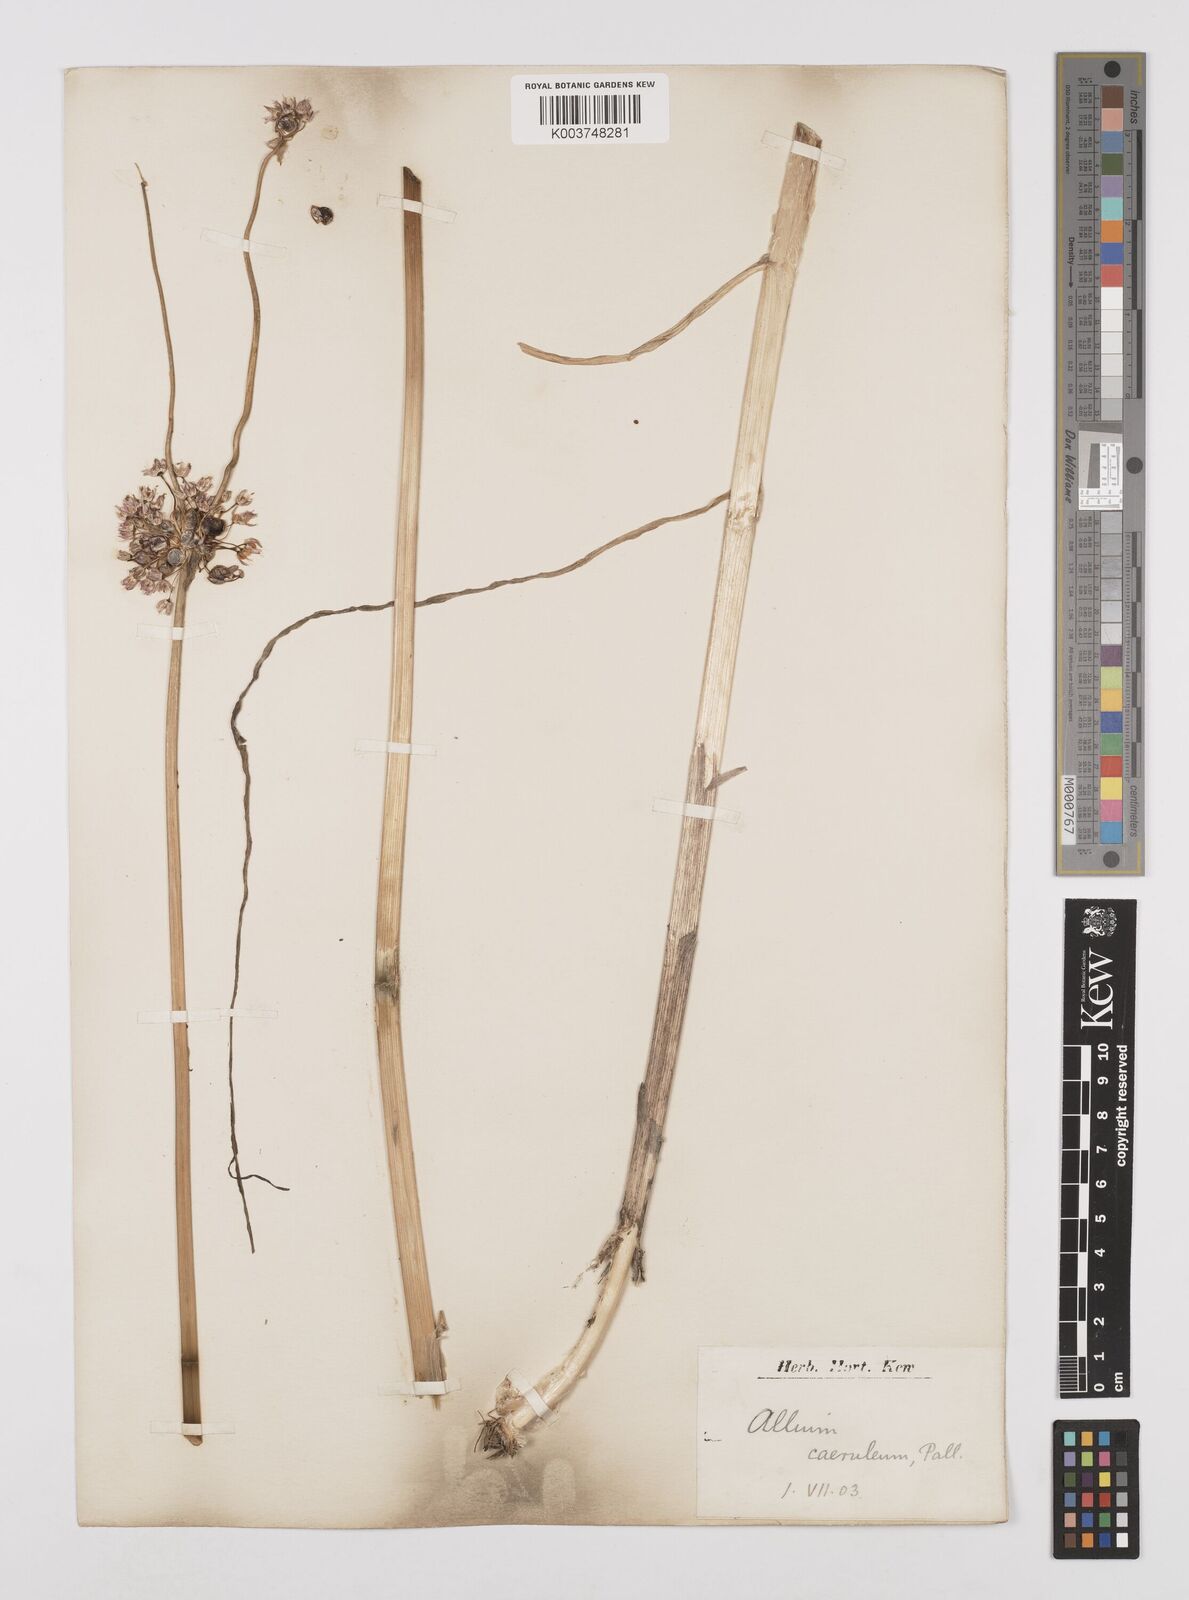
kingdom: Plantae
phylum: Tracheophyta
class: Liliopsida
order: Asparagales
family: Amaryllidaceae
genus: Allium
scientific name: Allium caeruleum
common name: Blue-of-the-heavens
